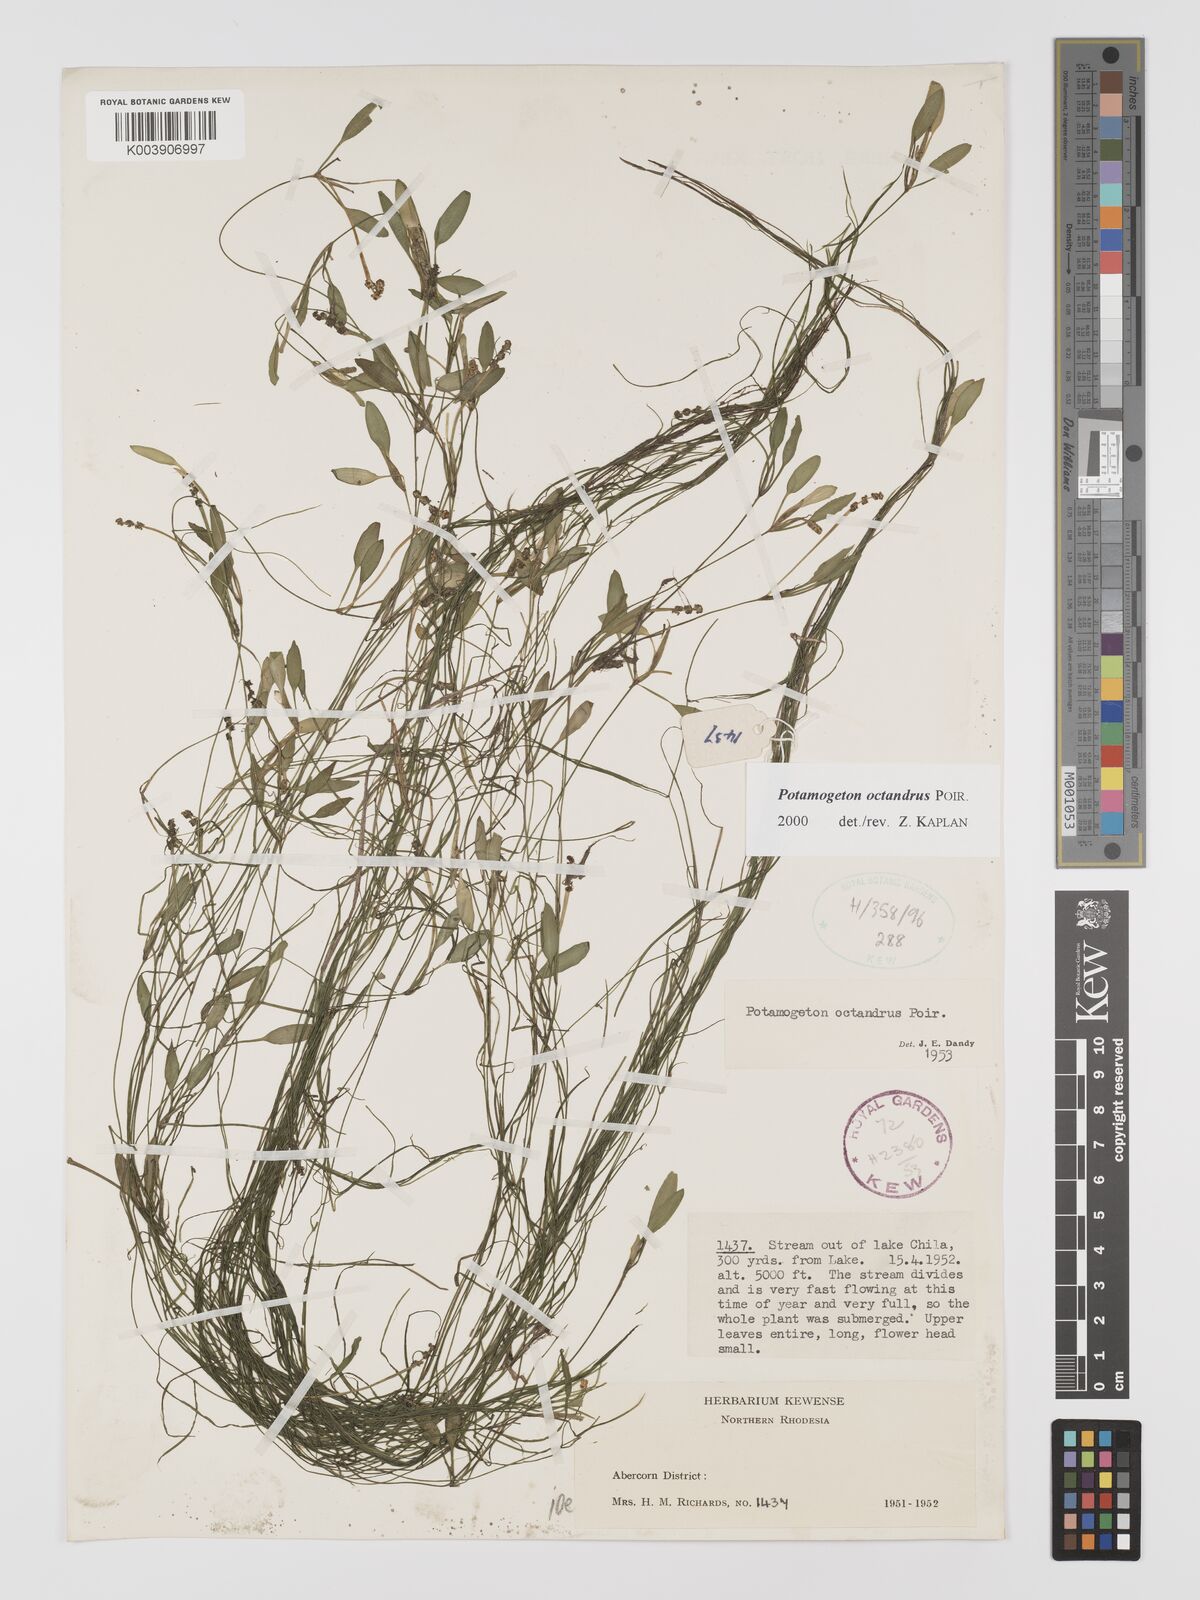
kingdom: Plantae
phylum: Tracheophyta
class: Liliopsida
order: Alismatales
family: Potamogetonaceae
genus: Potamogeton
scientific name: Potamogeton octandrus
